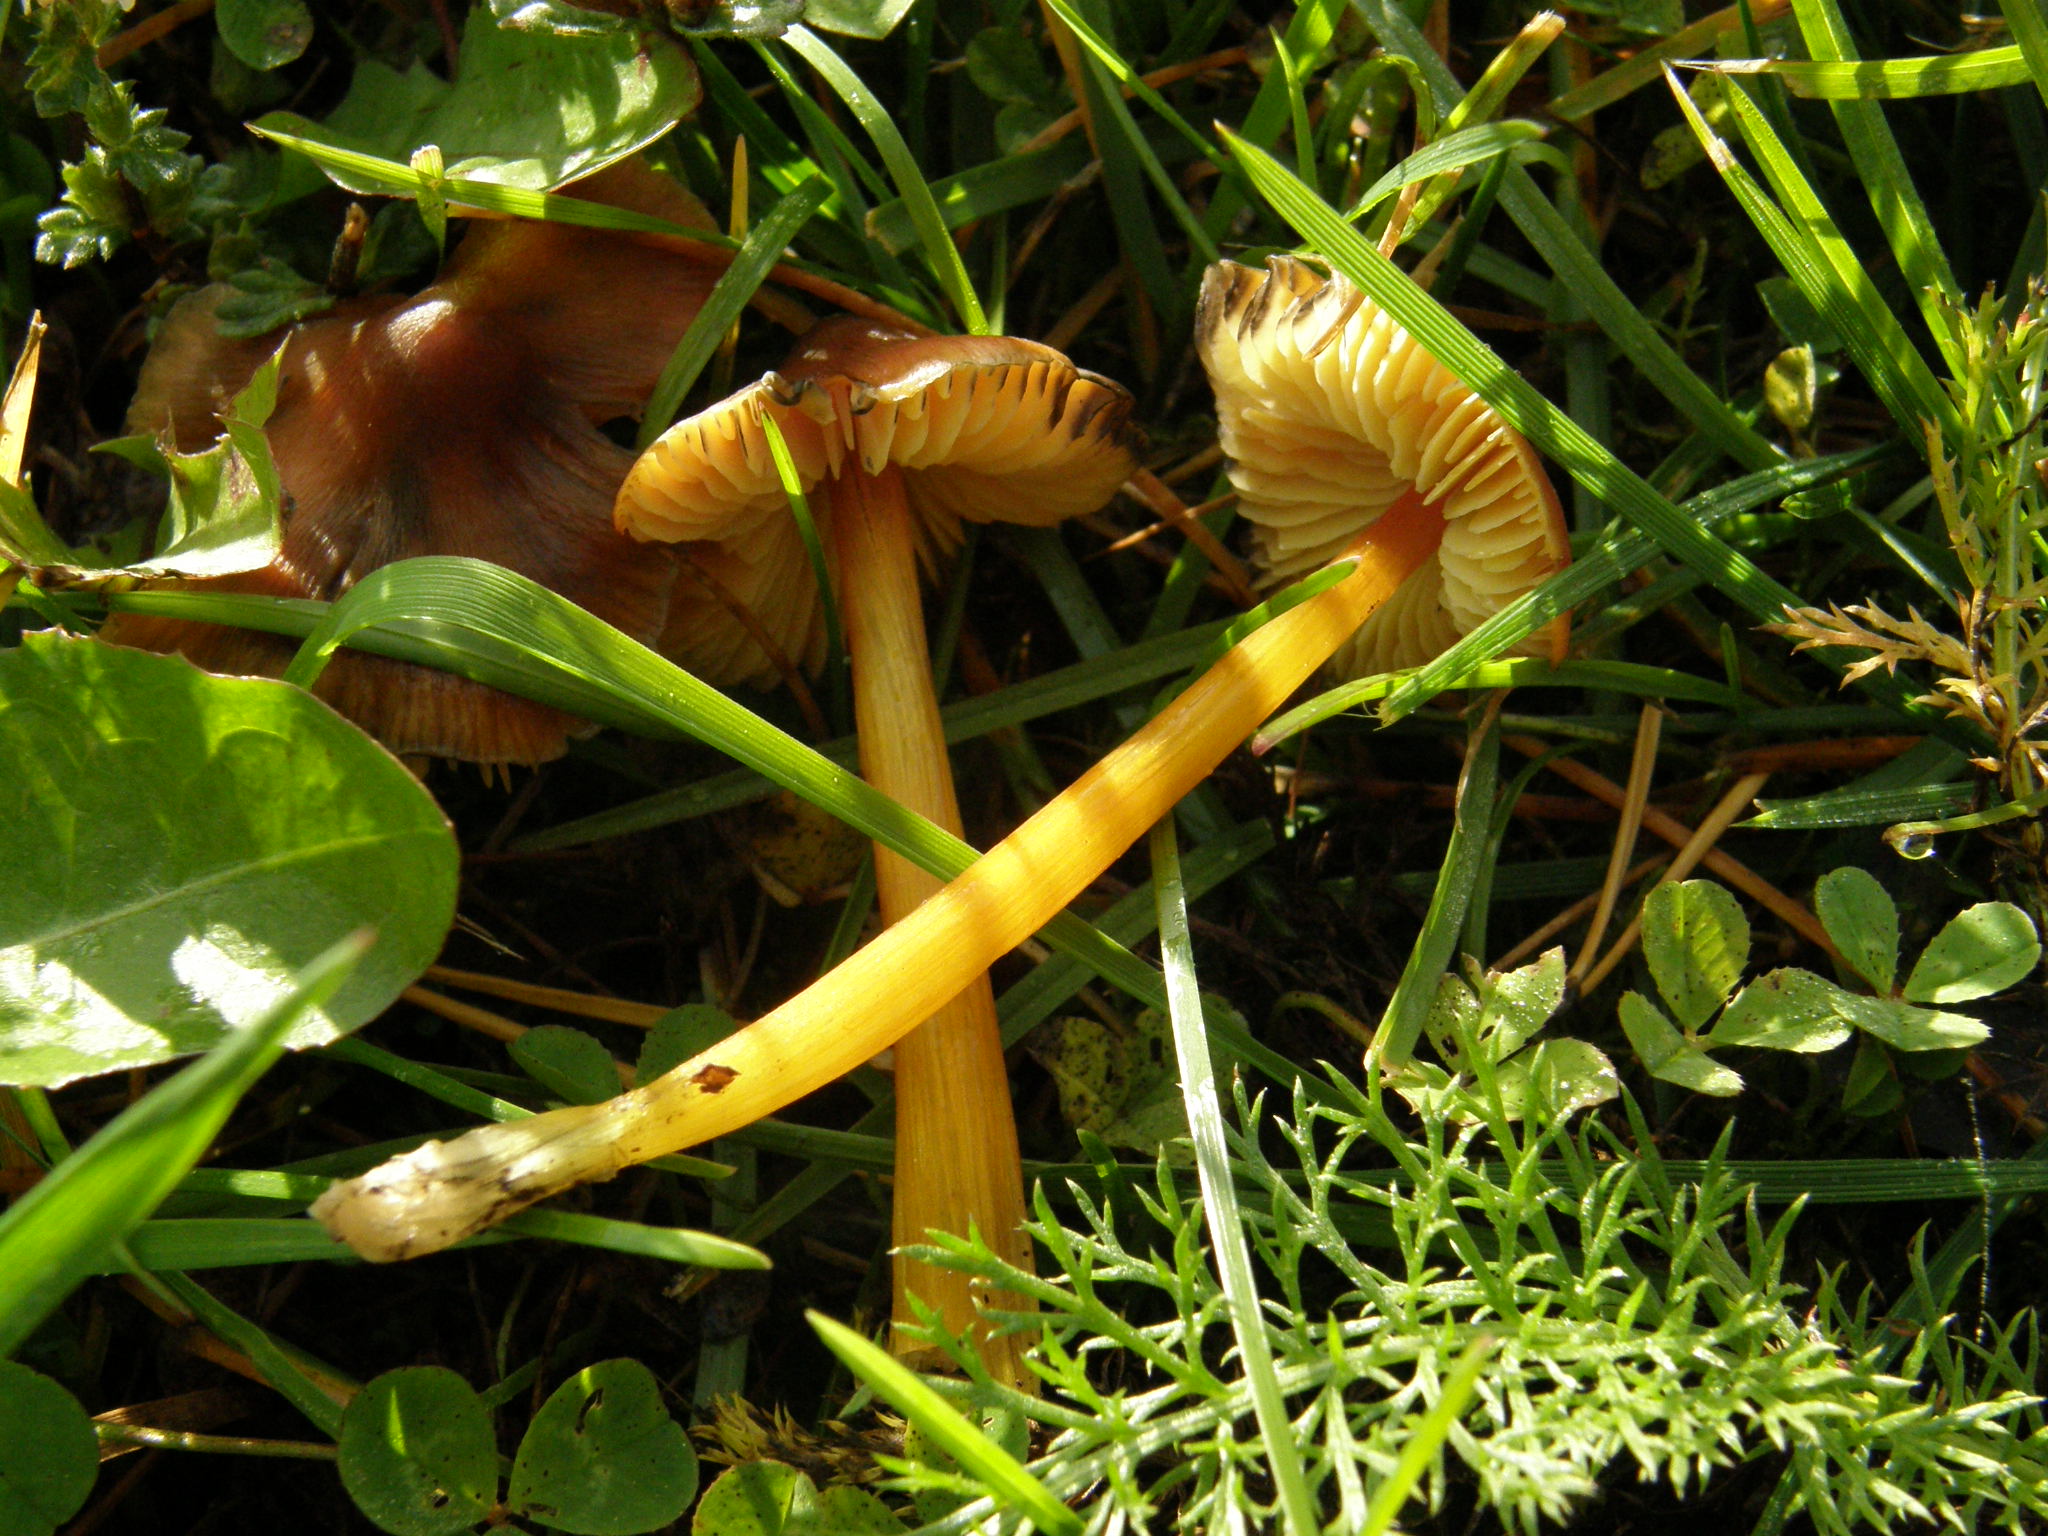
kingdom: Fungi
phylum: Basidiomycota
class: Agaricomycetes
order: Agaricales
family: Hygrophoraceae
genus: Hygrocybe
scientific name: Hygrocybe conica
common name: Blackening wax-cap
